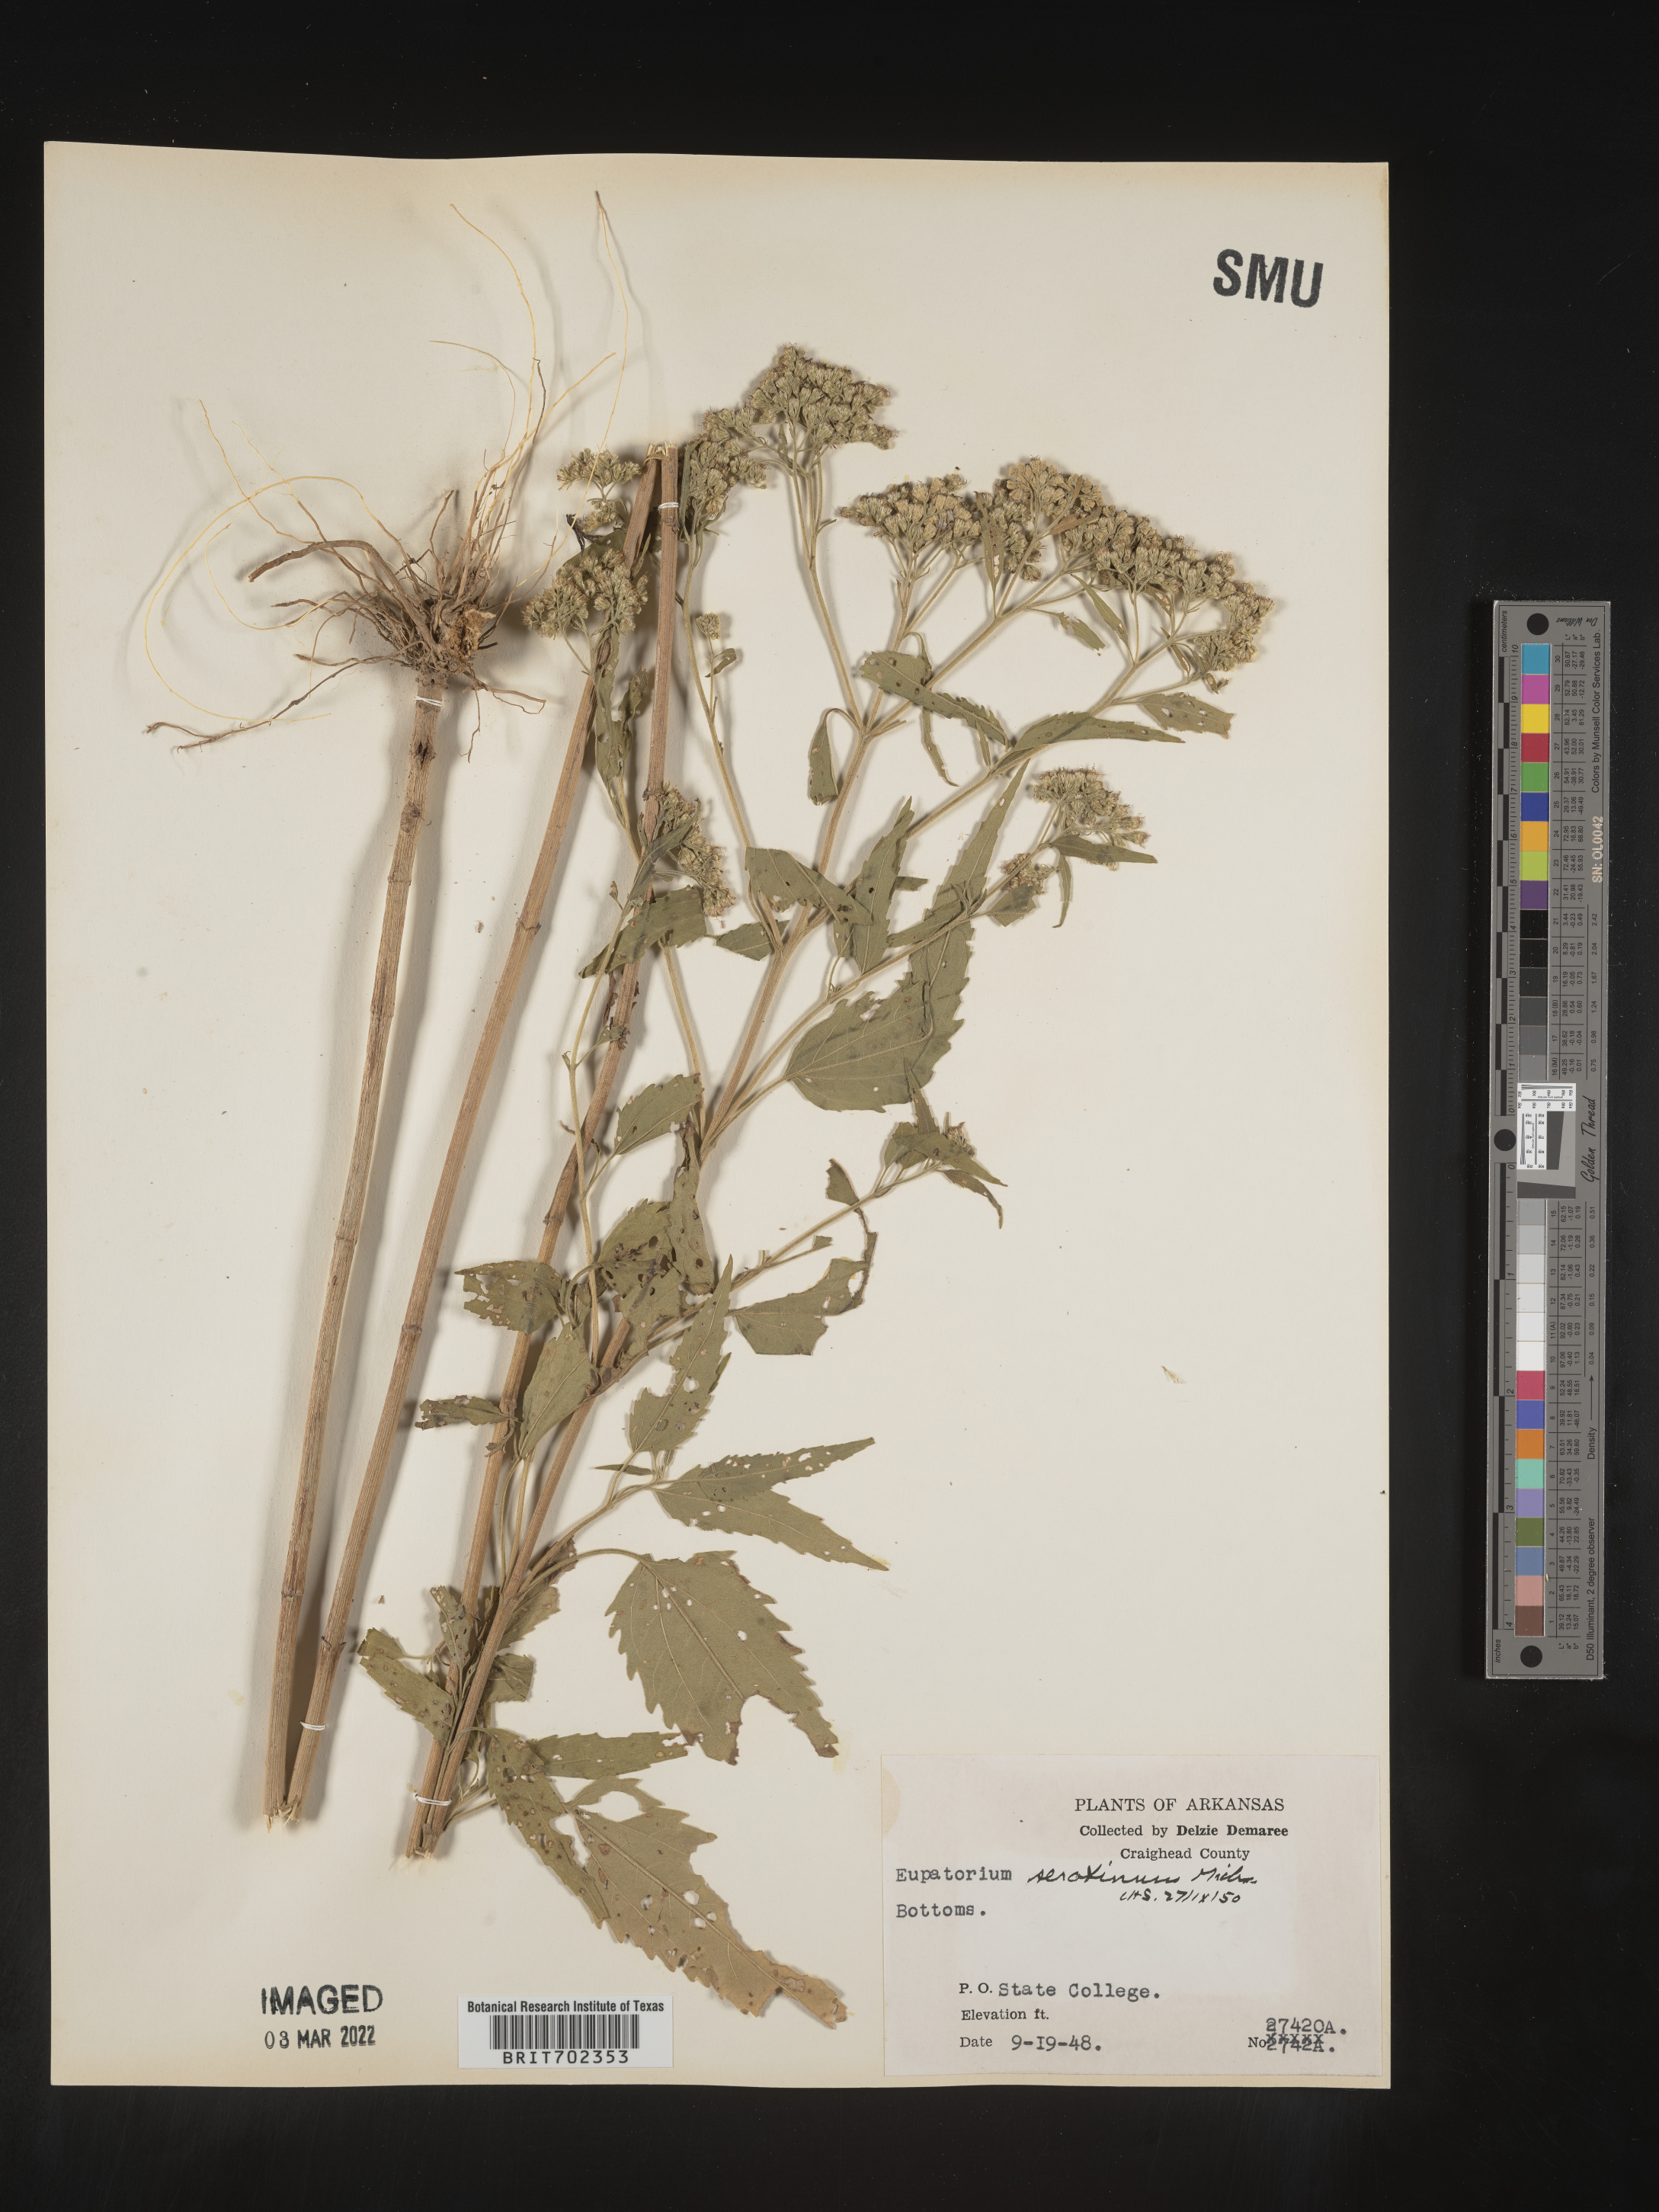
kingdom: Plantae
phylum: Tracheophyta
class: Magnoliopsida
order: Asterales
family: Asteraceae
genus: Eupatorium
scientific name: Eupatorium serotinum
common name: Late boneset
